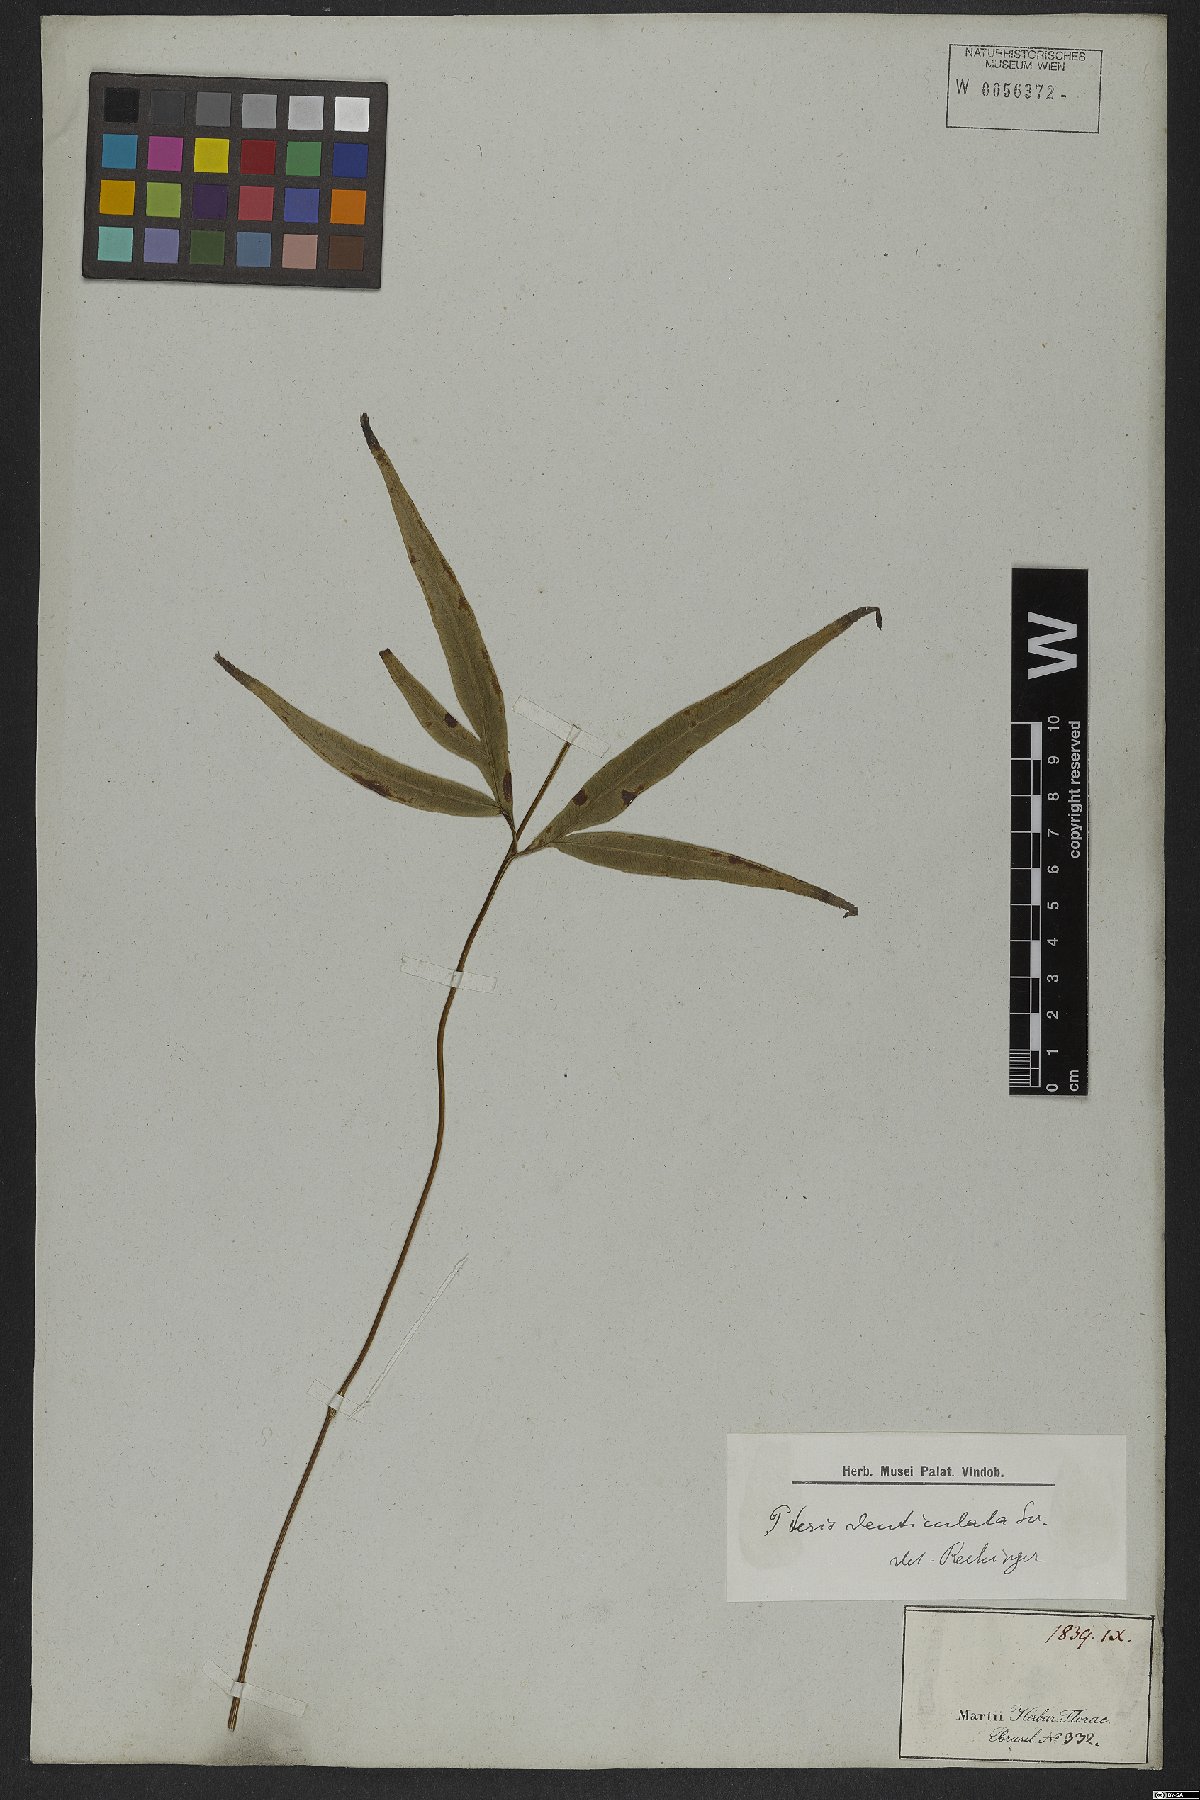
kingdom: Plantae
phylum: Tracheophyta
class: Polypodiopsida
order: Polypodiales
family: Pteridaceae
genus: Pteris
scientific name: Pteris denticulata
